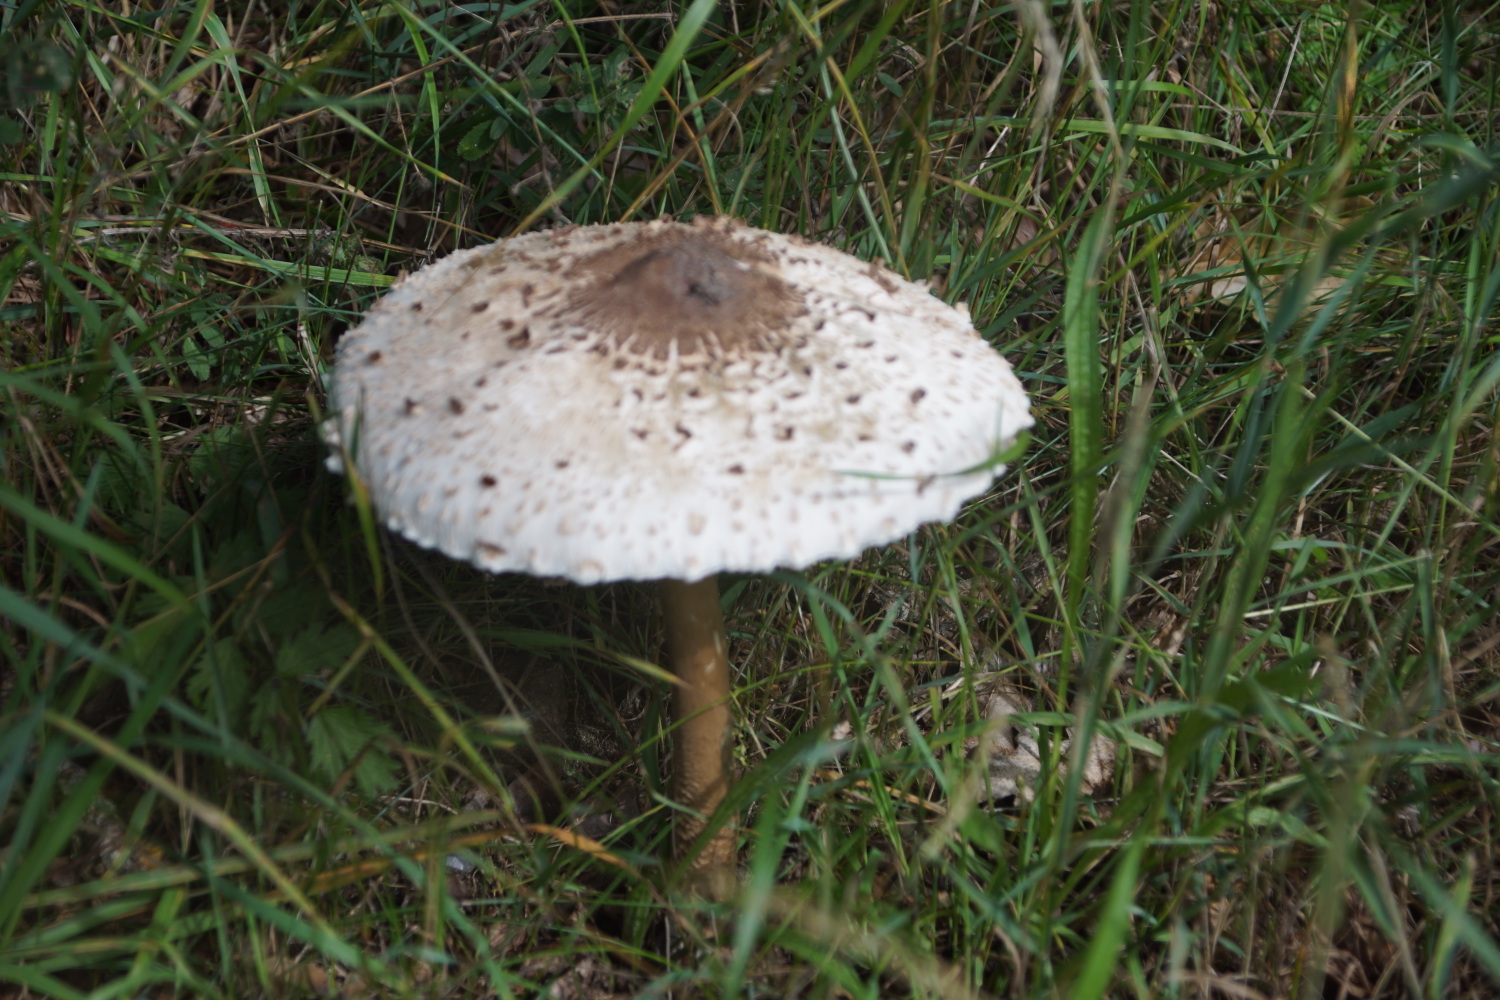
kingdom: Fungi
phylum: Basidiomycota
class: Agaricomycetes
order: Agaricales
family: Agaricaceae
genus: Macrolepiota
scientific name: Macrolepiota procera
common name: stor kæmpeparasolhat
